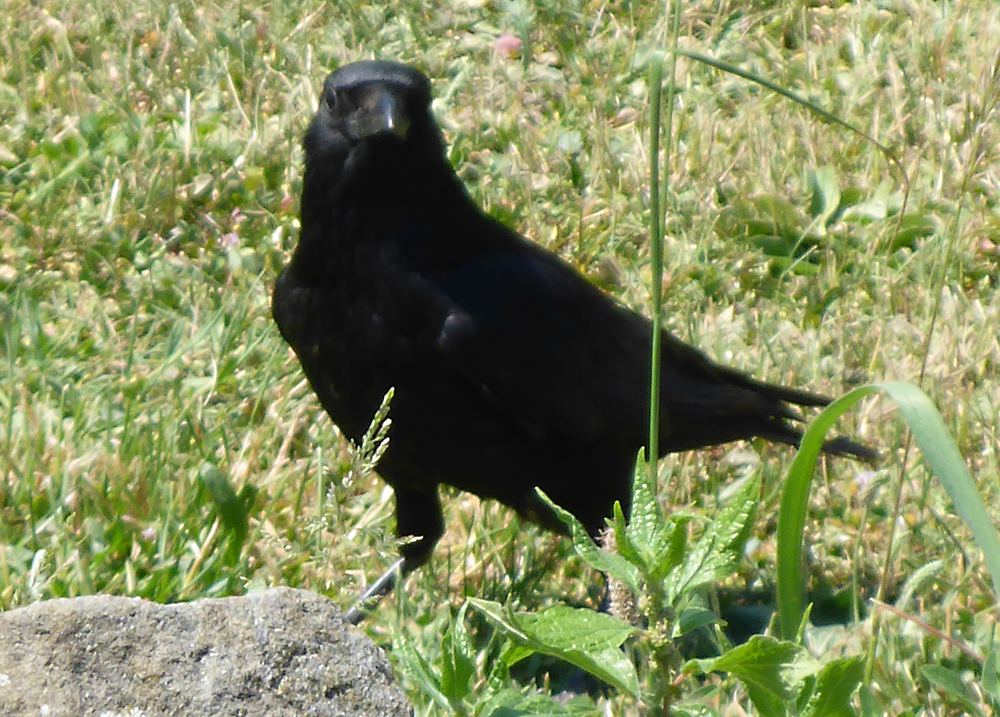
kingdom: Animalia
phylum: Chordata
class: Aves
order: Passeriformes
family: Corvidae
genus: Corvus
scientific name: Corvus corone
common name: Carrion crow
